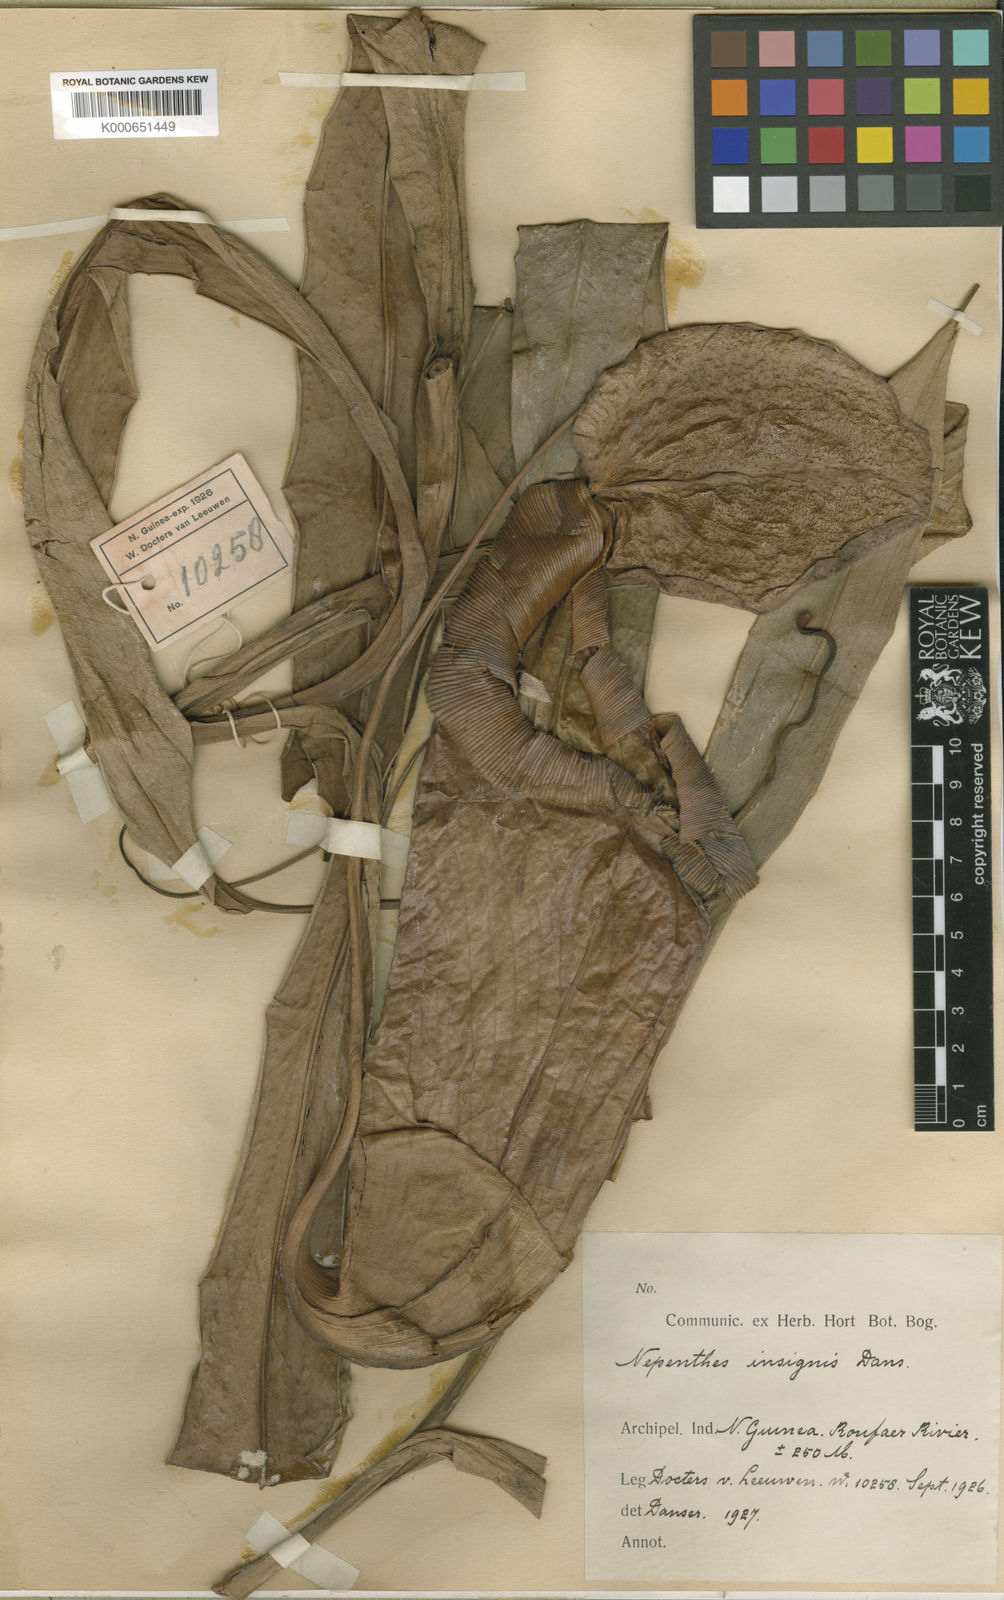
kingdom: Plantae
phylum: Tracheophyta
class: Magnoliopsida
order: Caryophyllales
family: Nepenthaceae
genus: Nepenthes
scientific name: Nepenthes insignis
